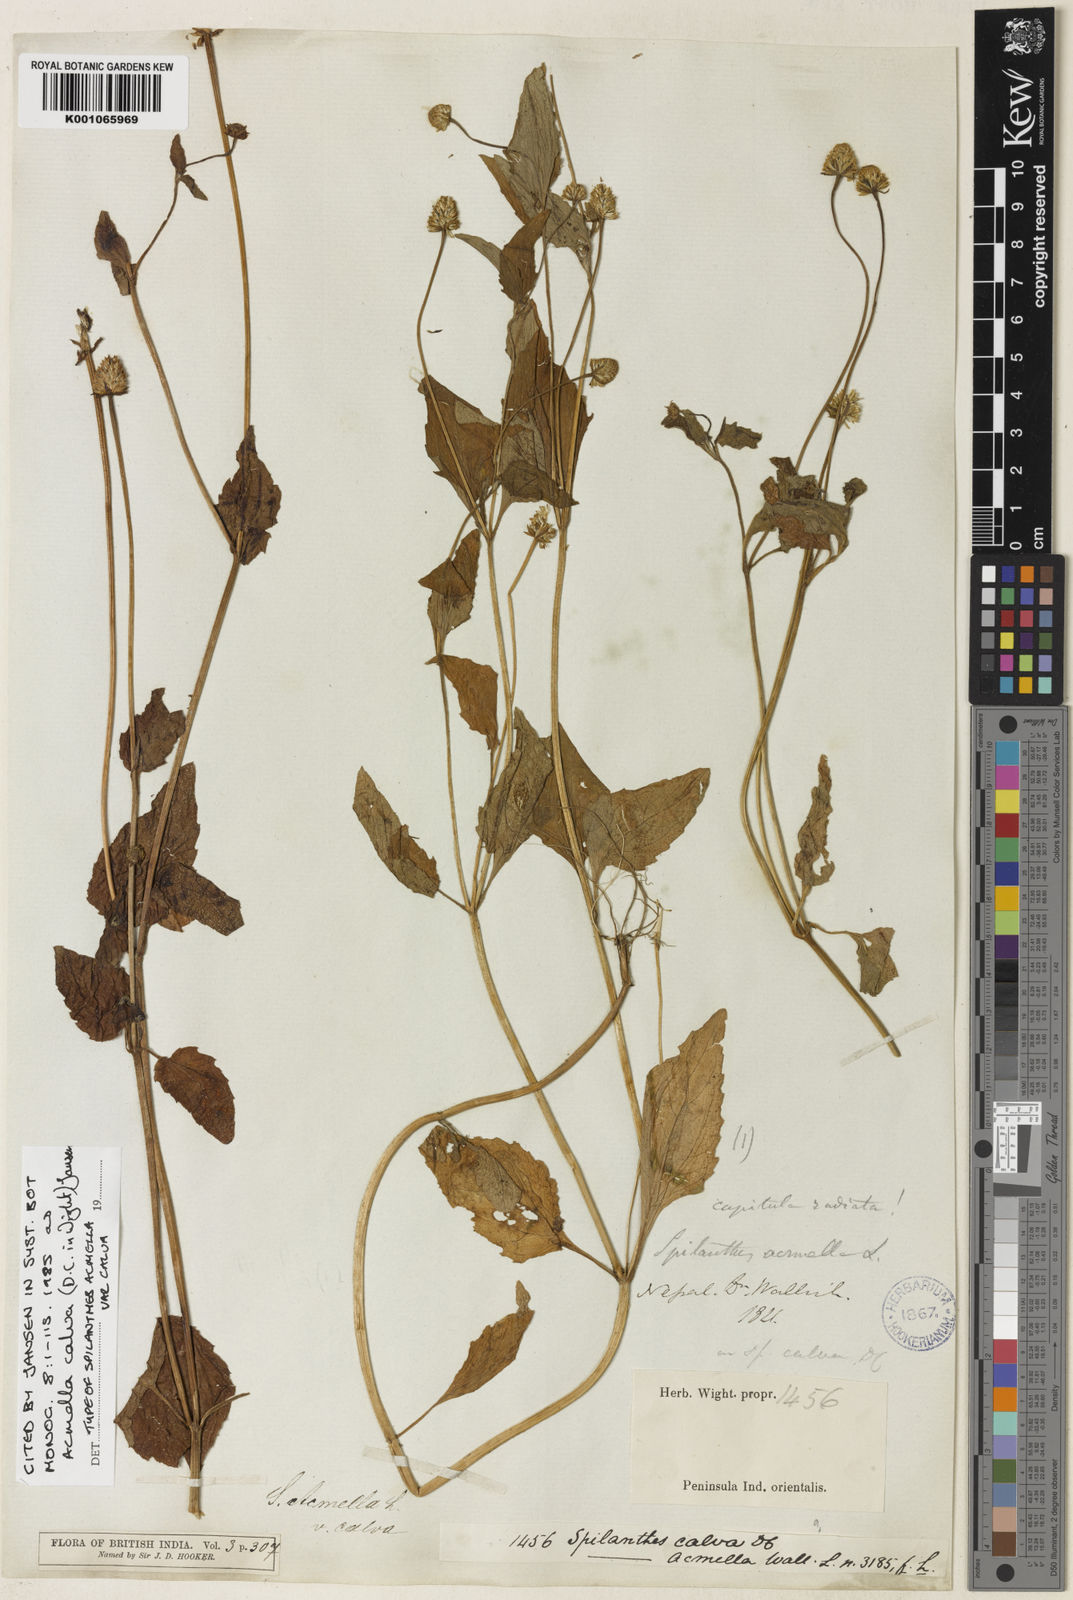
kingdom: Plantae
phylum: Tracheophyta
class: Magnoliopsida
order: Asterales
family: Asteraceae
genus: Acmella
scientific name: Acmella calva
